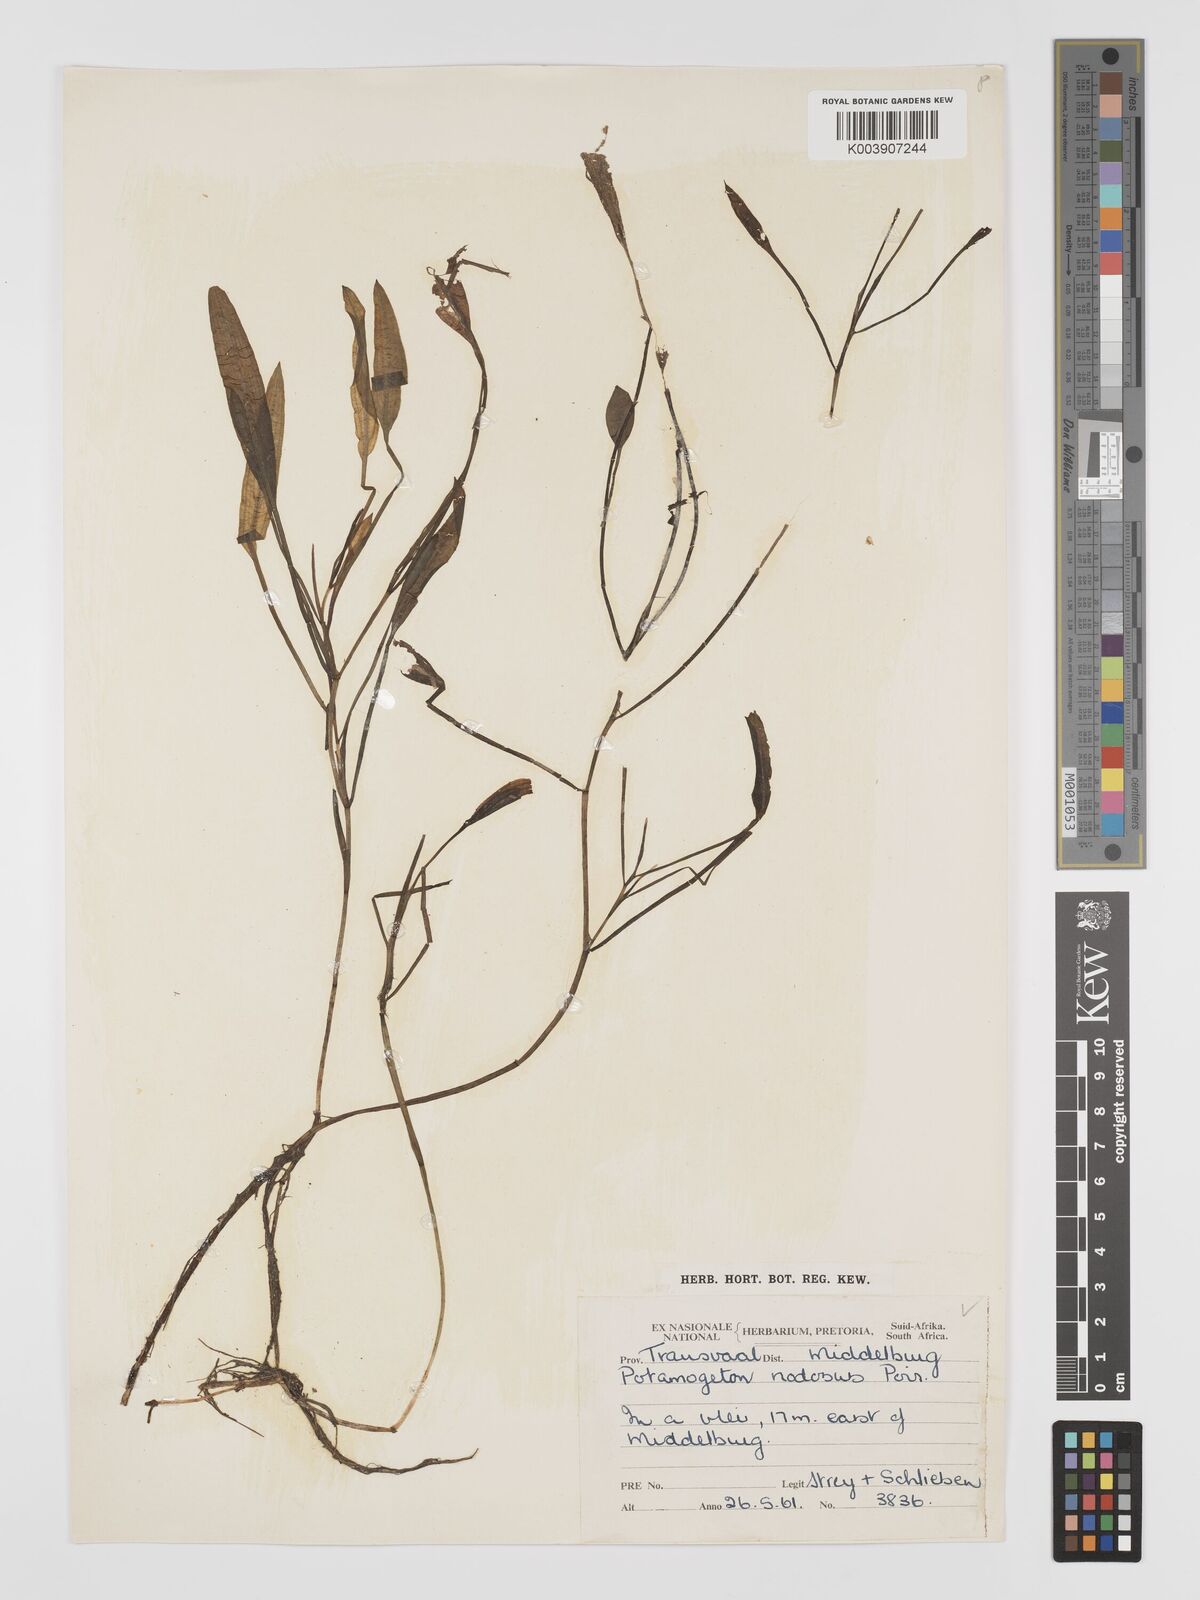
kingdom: Plantae
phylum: Tracheophyta
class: Liliopsida
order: Alismatales
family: Potamogetonaceae
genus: Potamogeton
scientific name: Potamogeton nodosus
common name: Loddon pondweed
